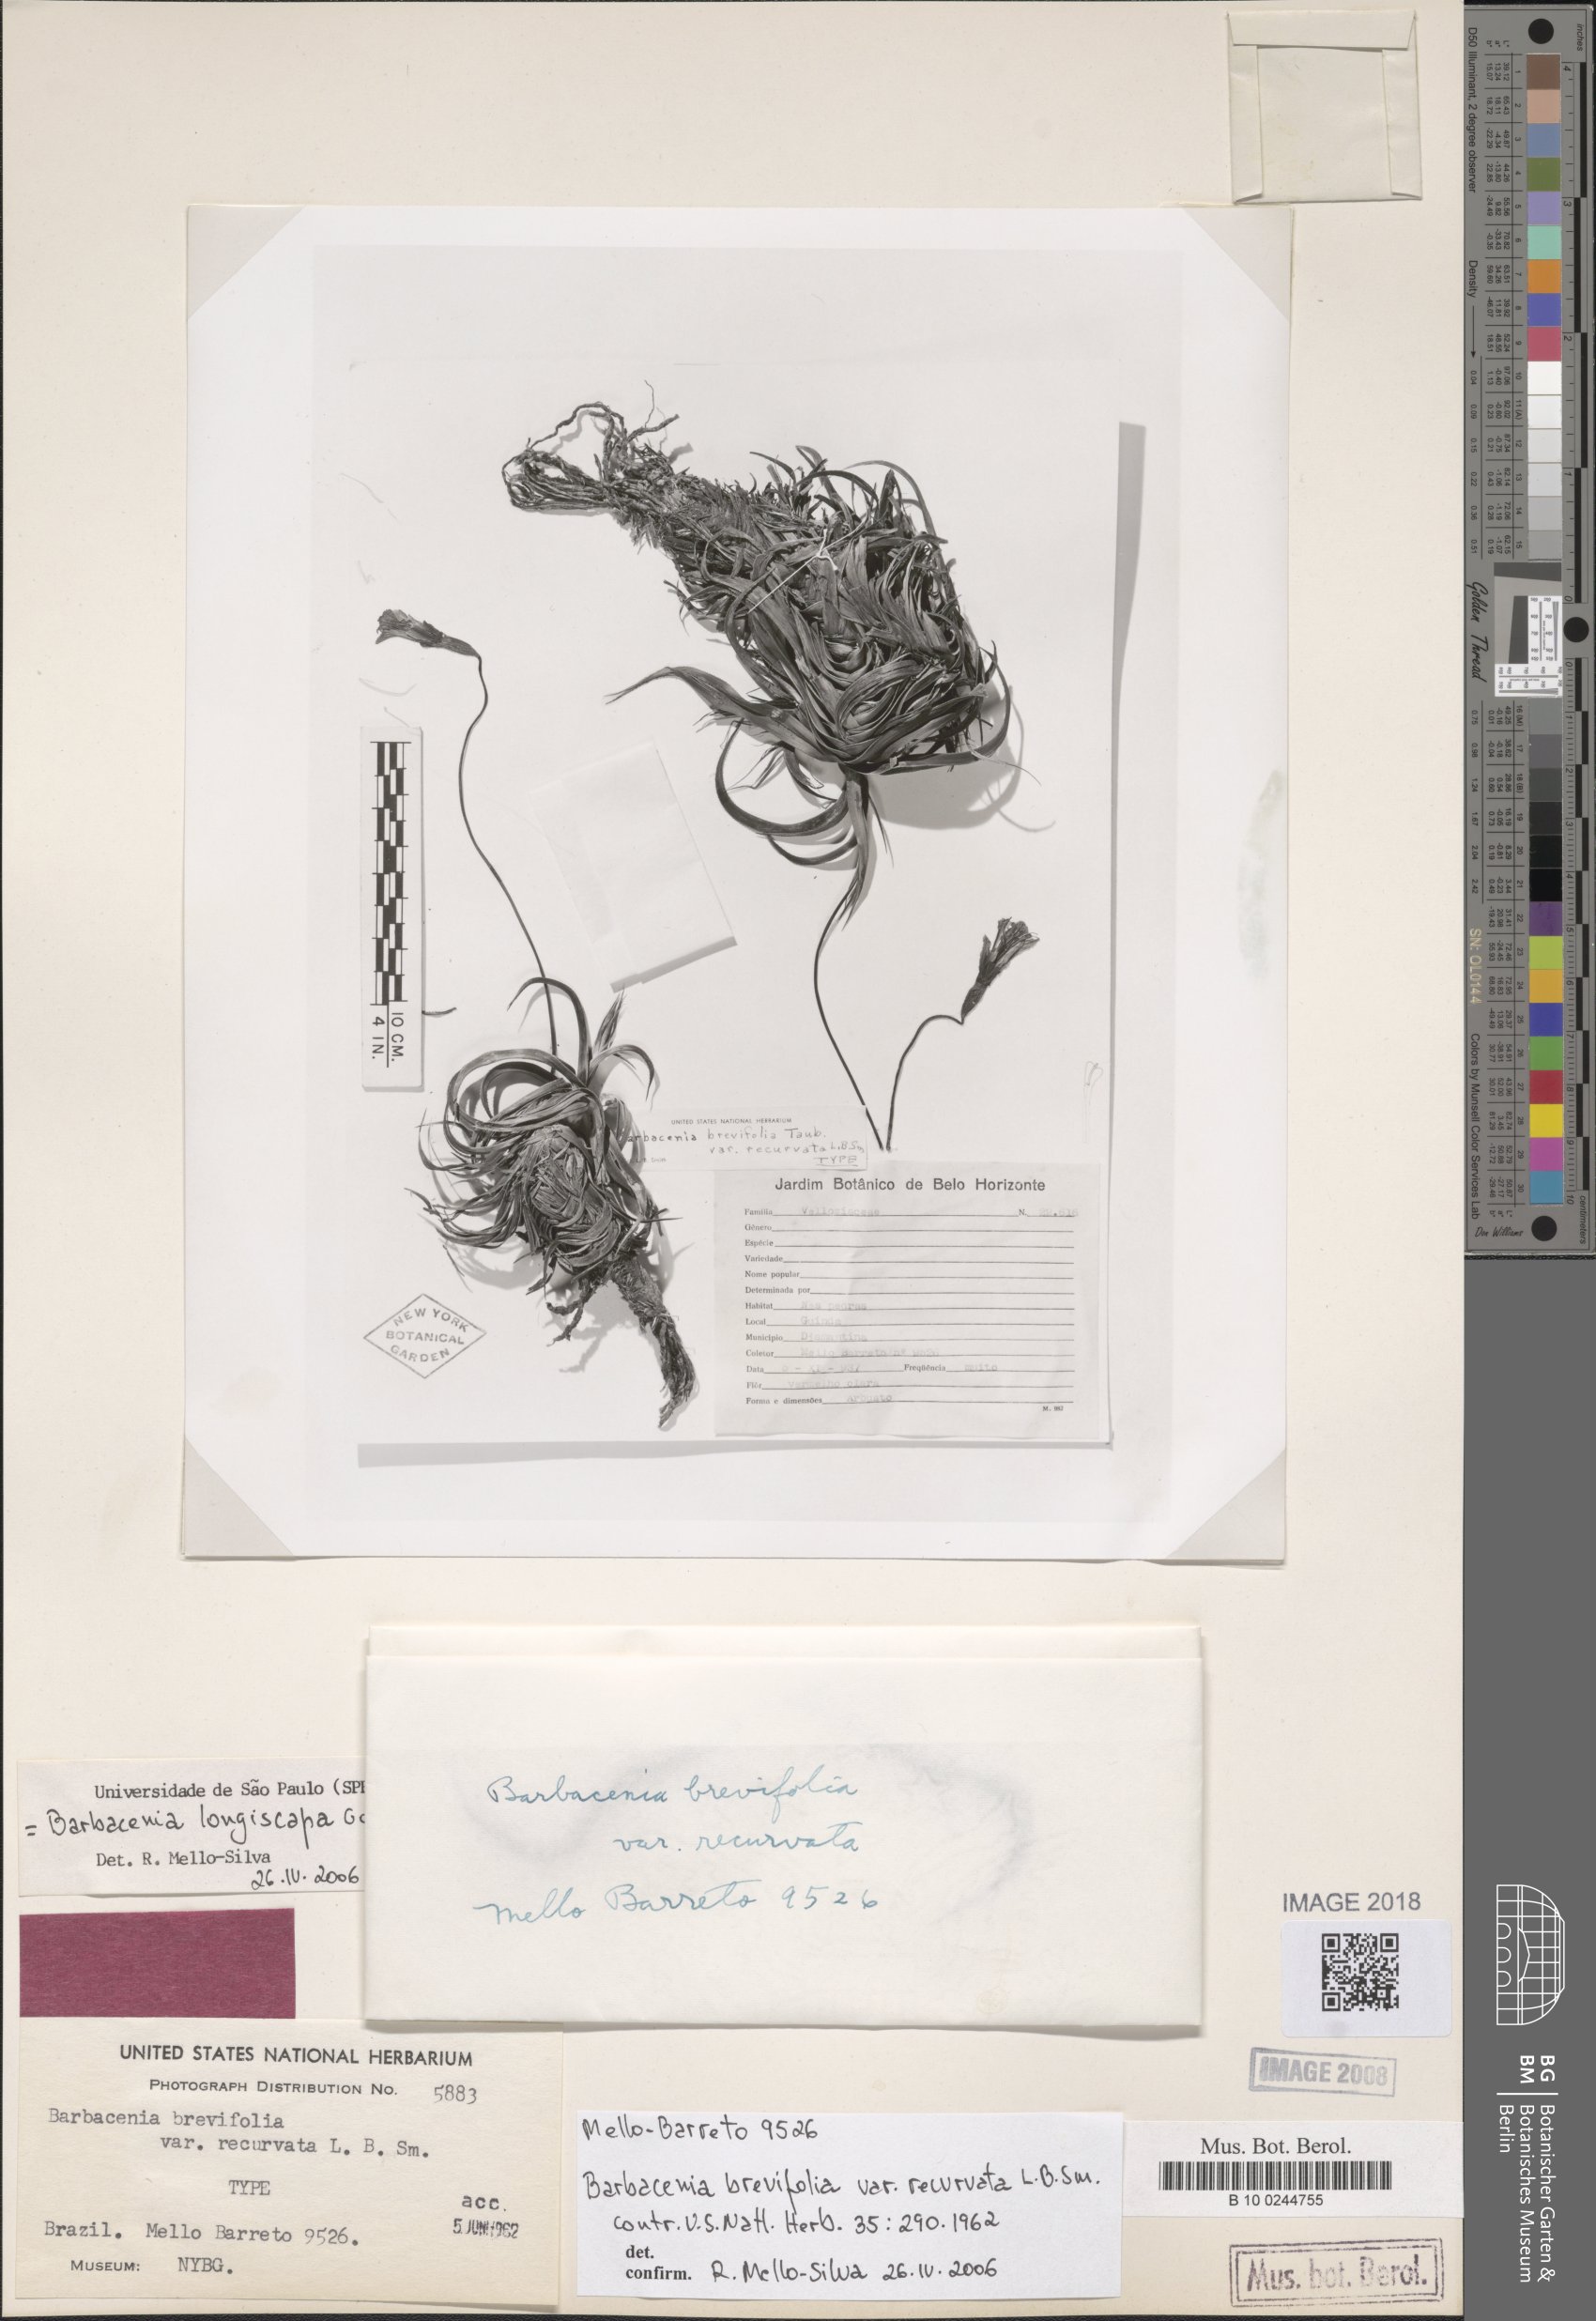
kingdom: Plantae
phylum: Tracheophyta
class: Liliopsida
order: Pandanales
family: Velloziaceae
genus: Barbacenia
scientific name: Barbacenia longiscapa
